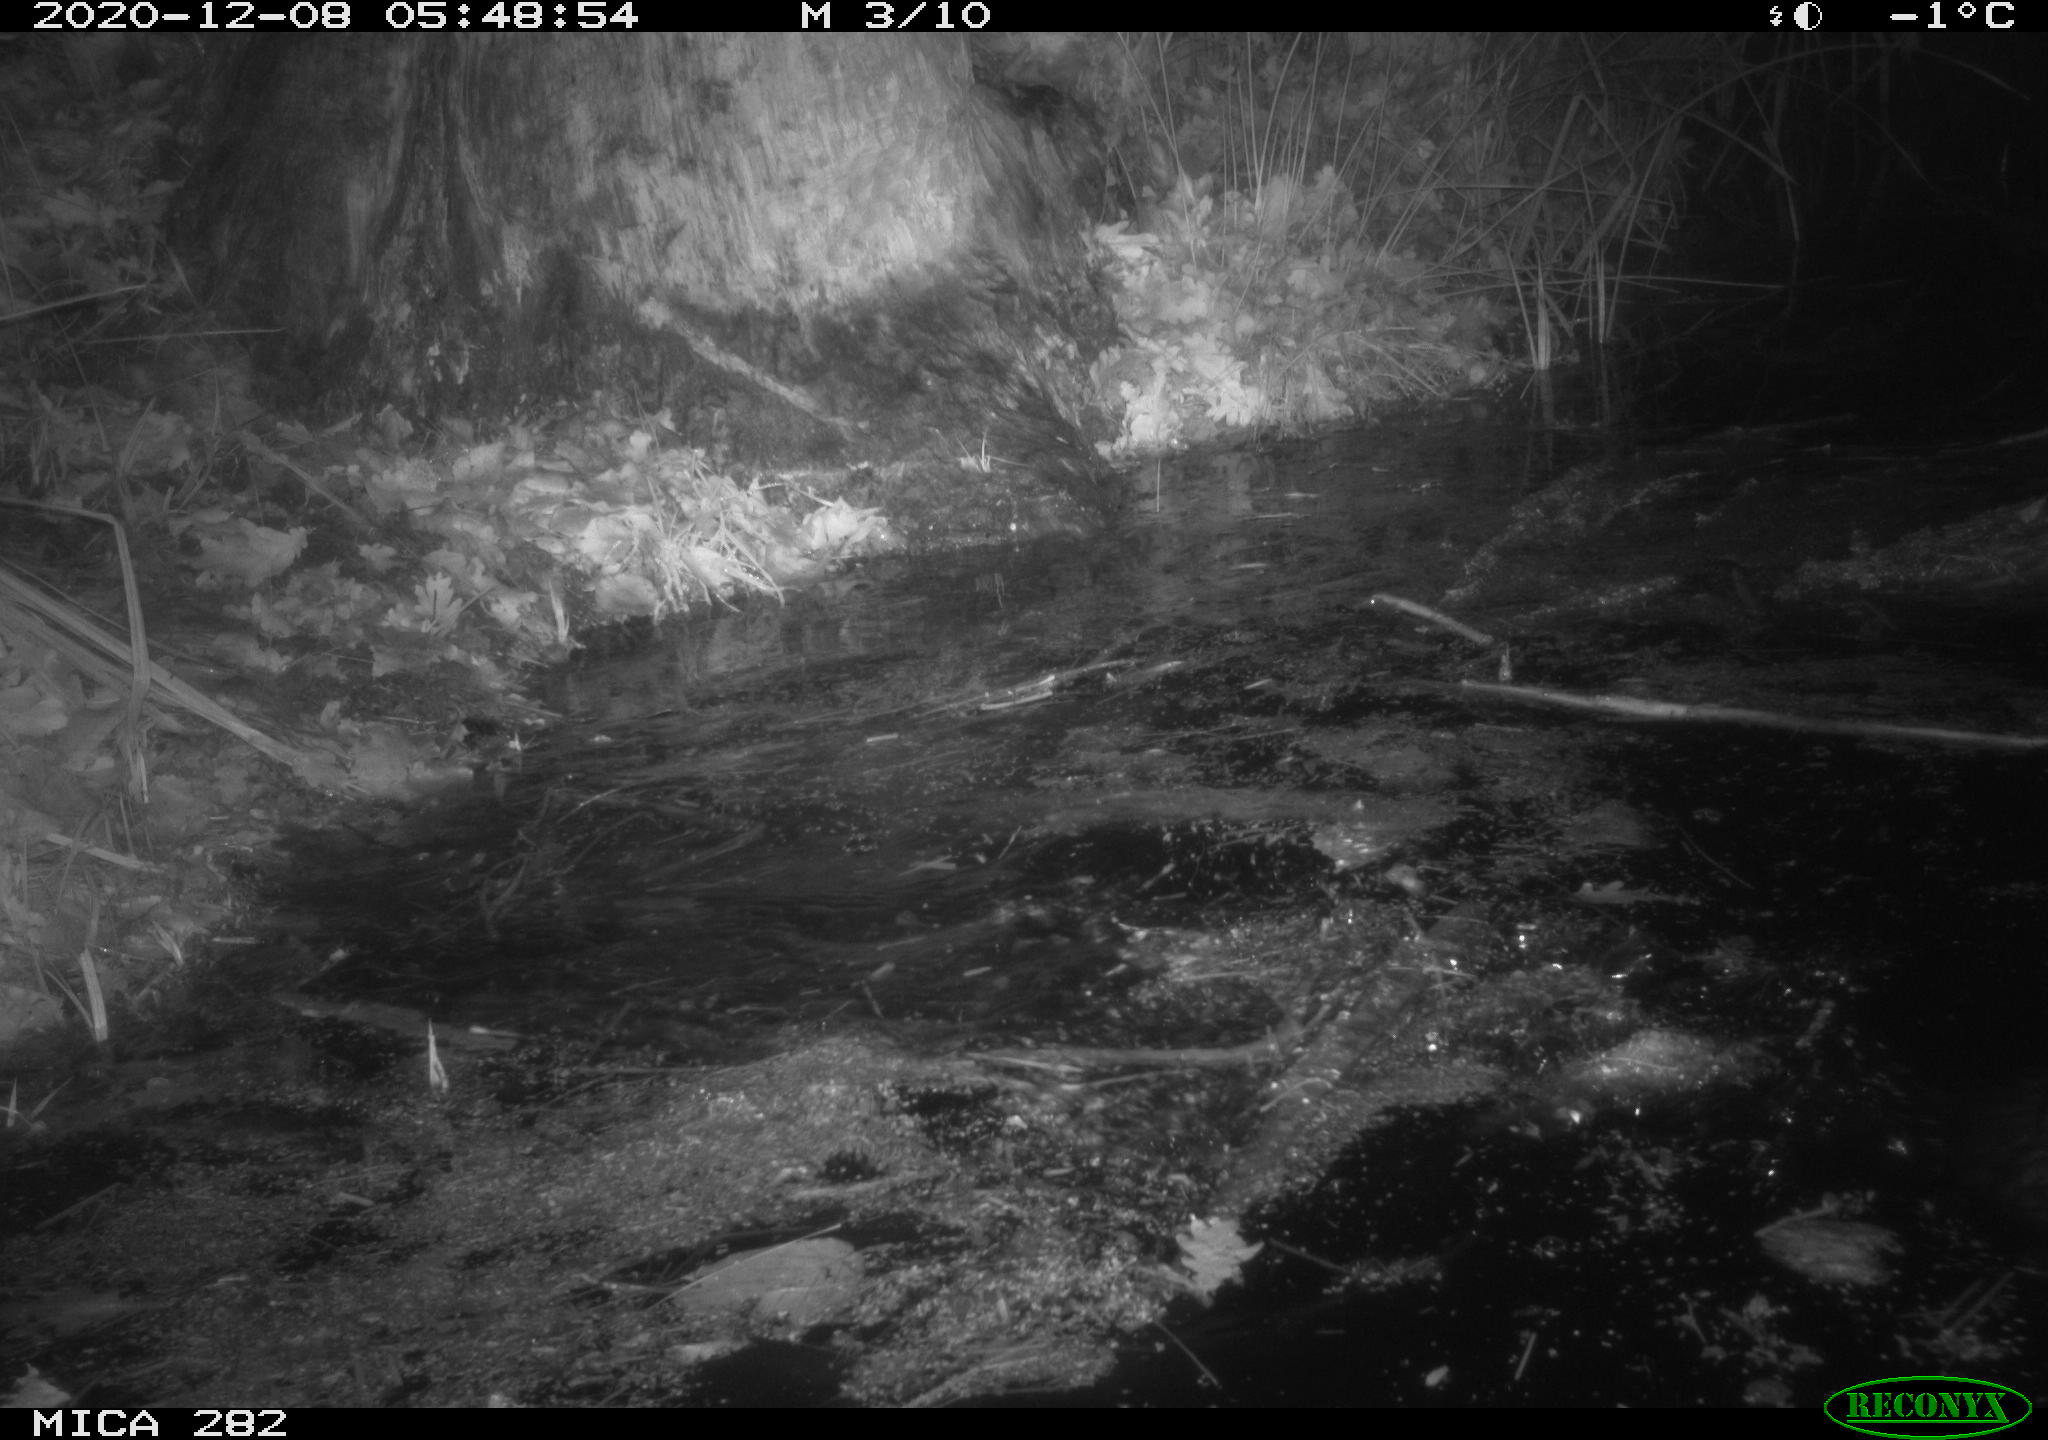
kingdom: Animalia
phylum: Chordata
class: Mammalia
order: Rodentia
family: Castoridae
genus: Castor
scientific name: Castor fiber
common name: Eurasian beaver
